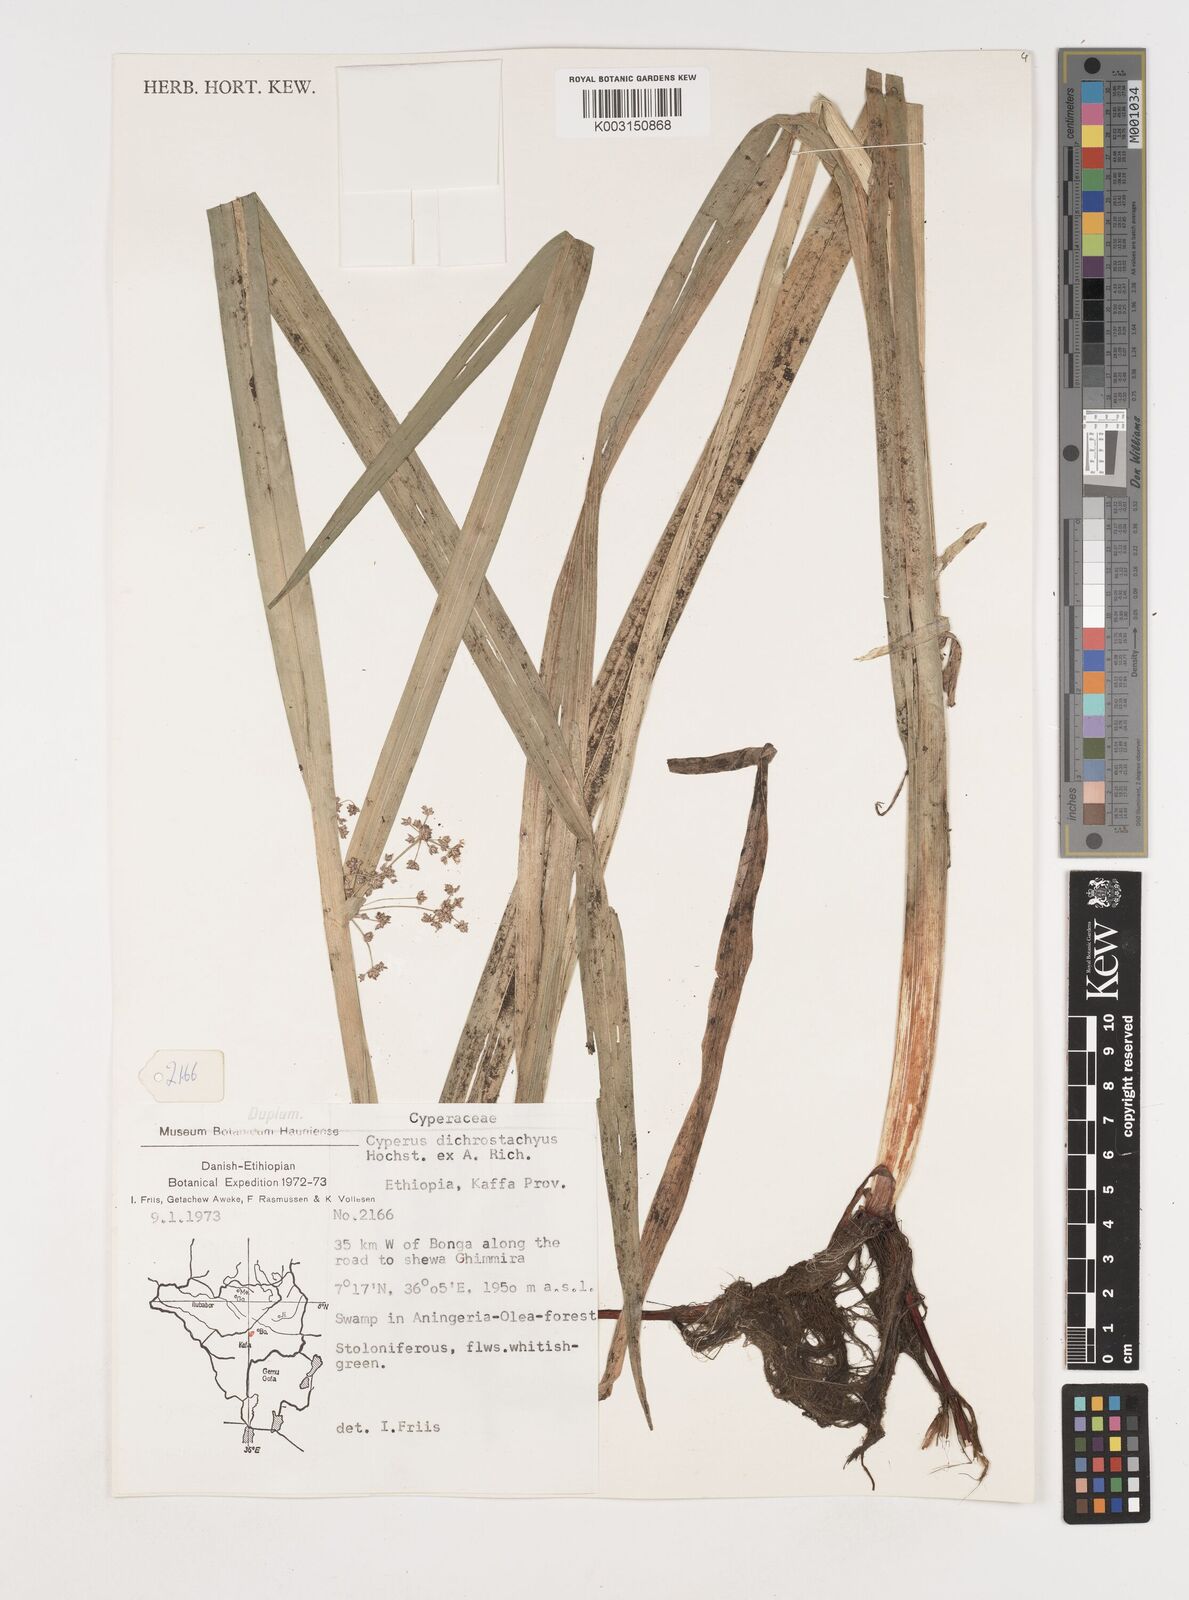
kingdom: Plantae
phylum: Tracheophyta
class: Liliopsida
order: Poales
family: Cyperaceae
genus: Cyperus
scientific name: Cyperus dichrostachyus
